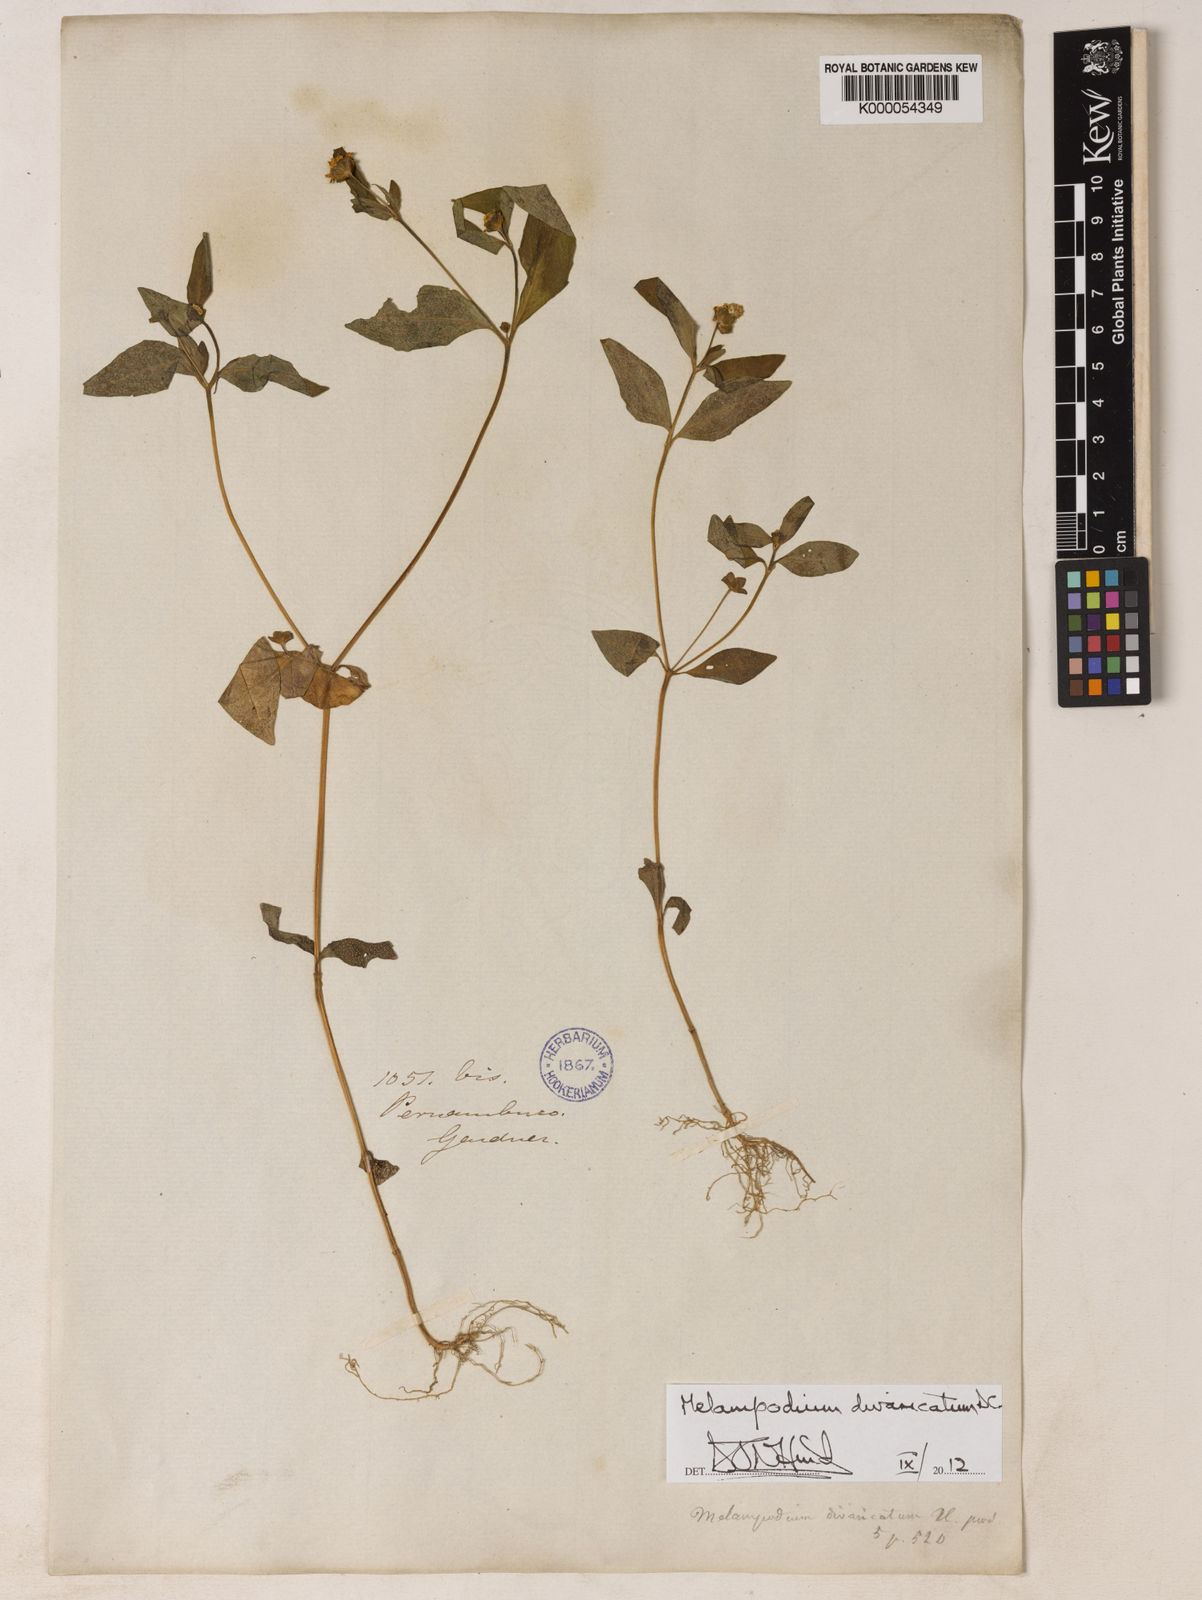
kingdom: Plantae
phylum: Tracheophyta
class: Magnoliopsida
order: Asterales
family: Asteraceae
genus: Melampodium
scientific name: Melampodium divaricatum
